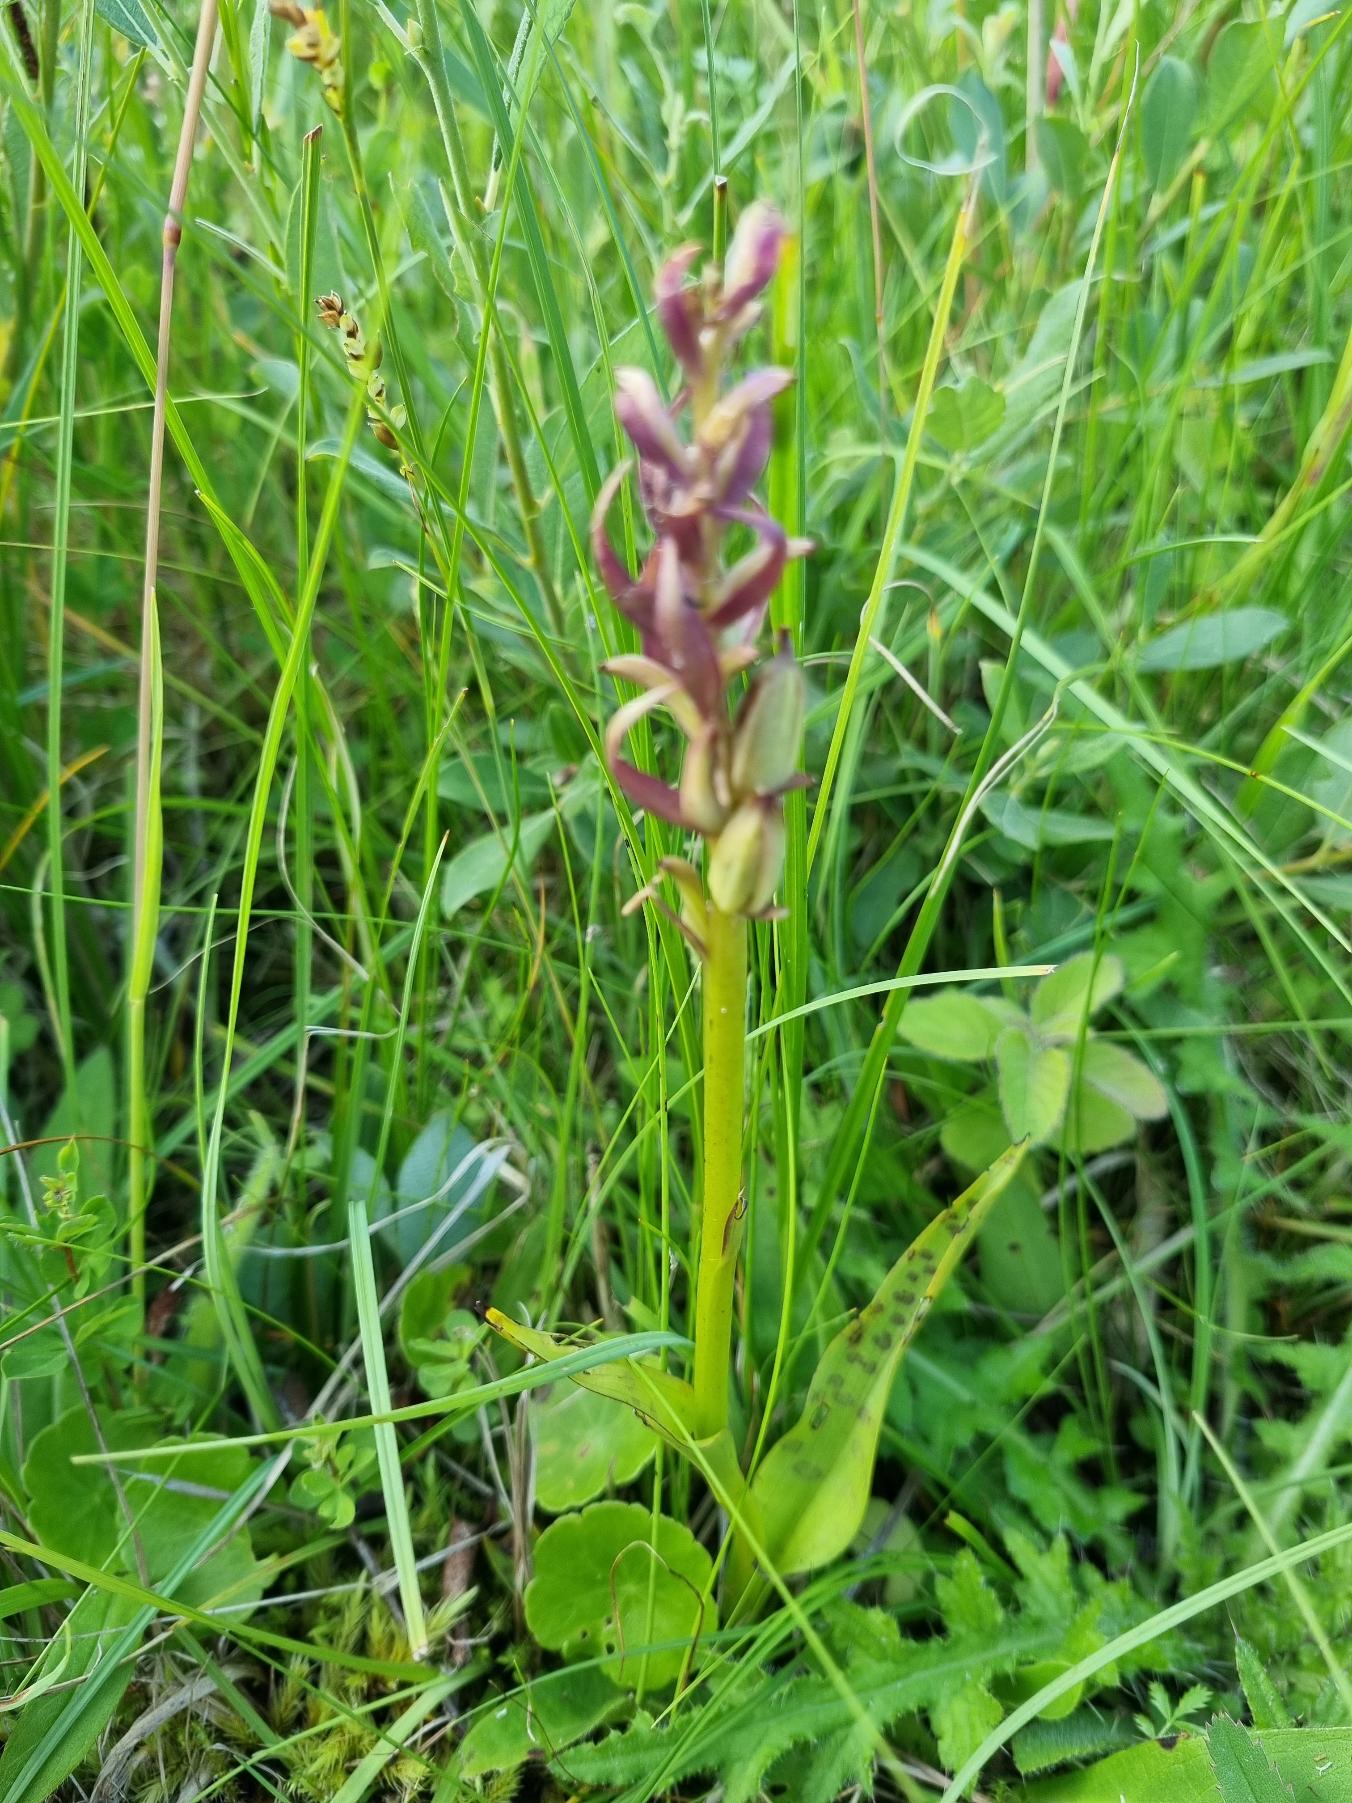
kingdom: Plantae
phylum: Tracheophyta
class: Liliopsida
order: Asparagales
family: Orchidaceae
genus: Dactylorhiza
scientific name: Dactylorhiza maculata
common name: Plettet gøgeurt
